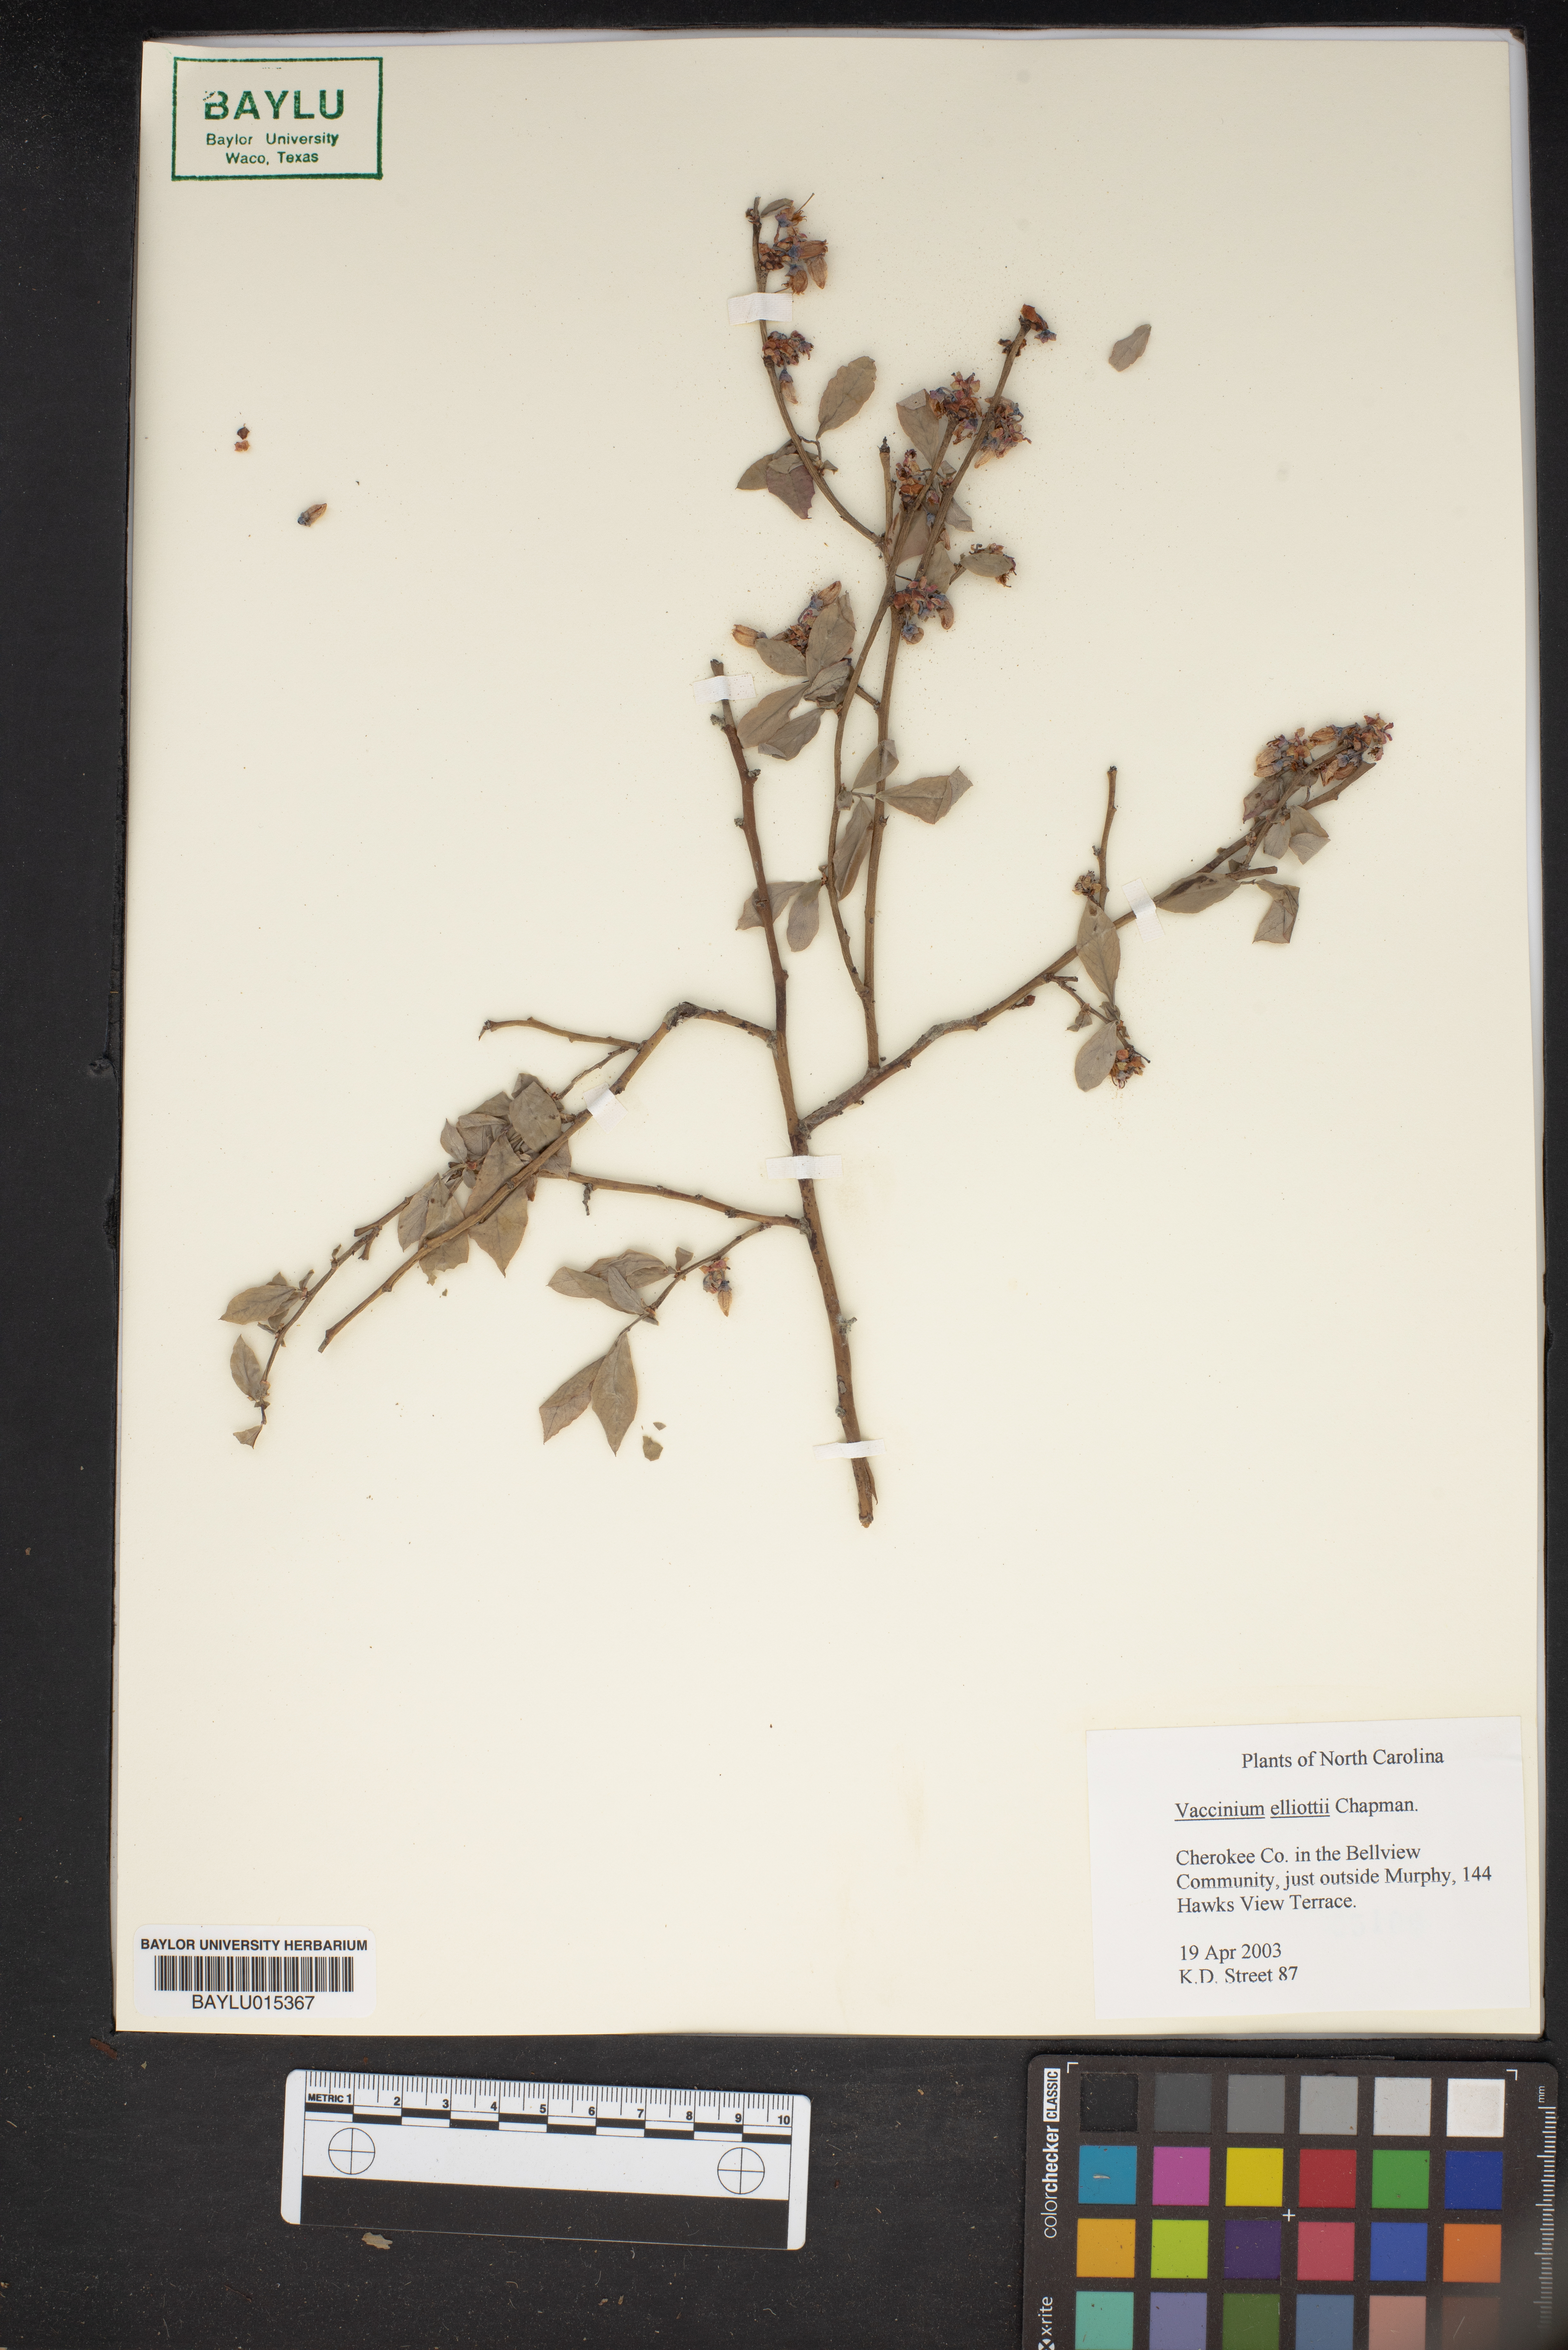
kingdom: Plantae
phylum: Tracheophyta
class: Magnoliopsida
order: Ericales
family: Ericaceae
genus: Vaccinium
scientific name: Vaccinium corymbosum
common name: Blueberry
